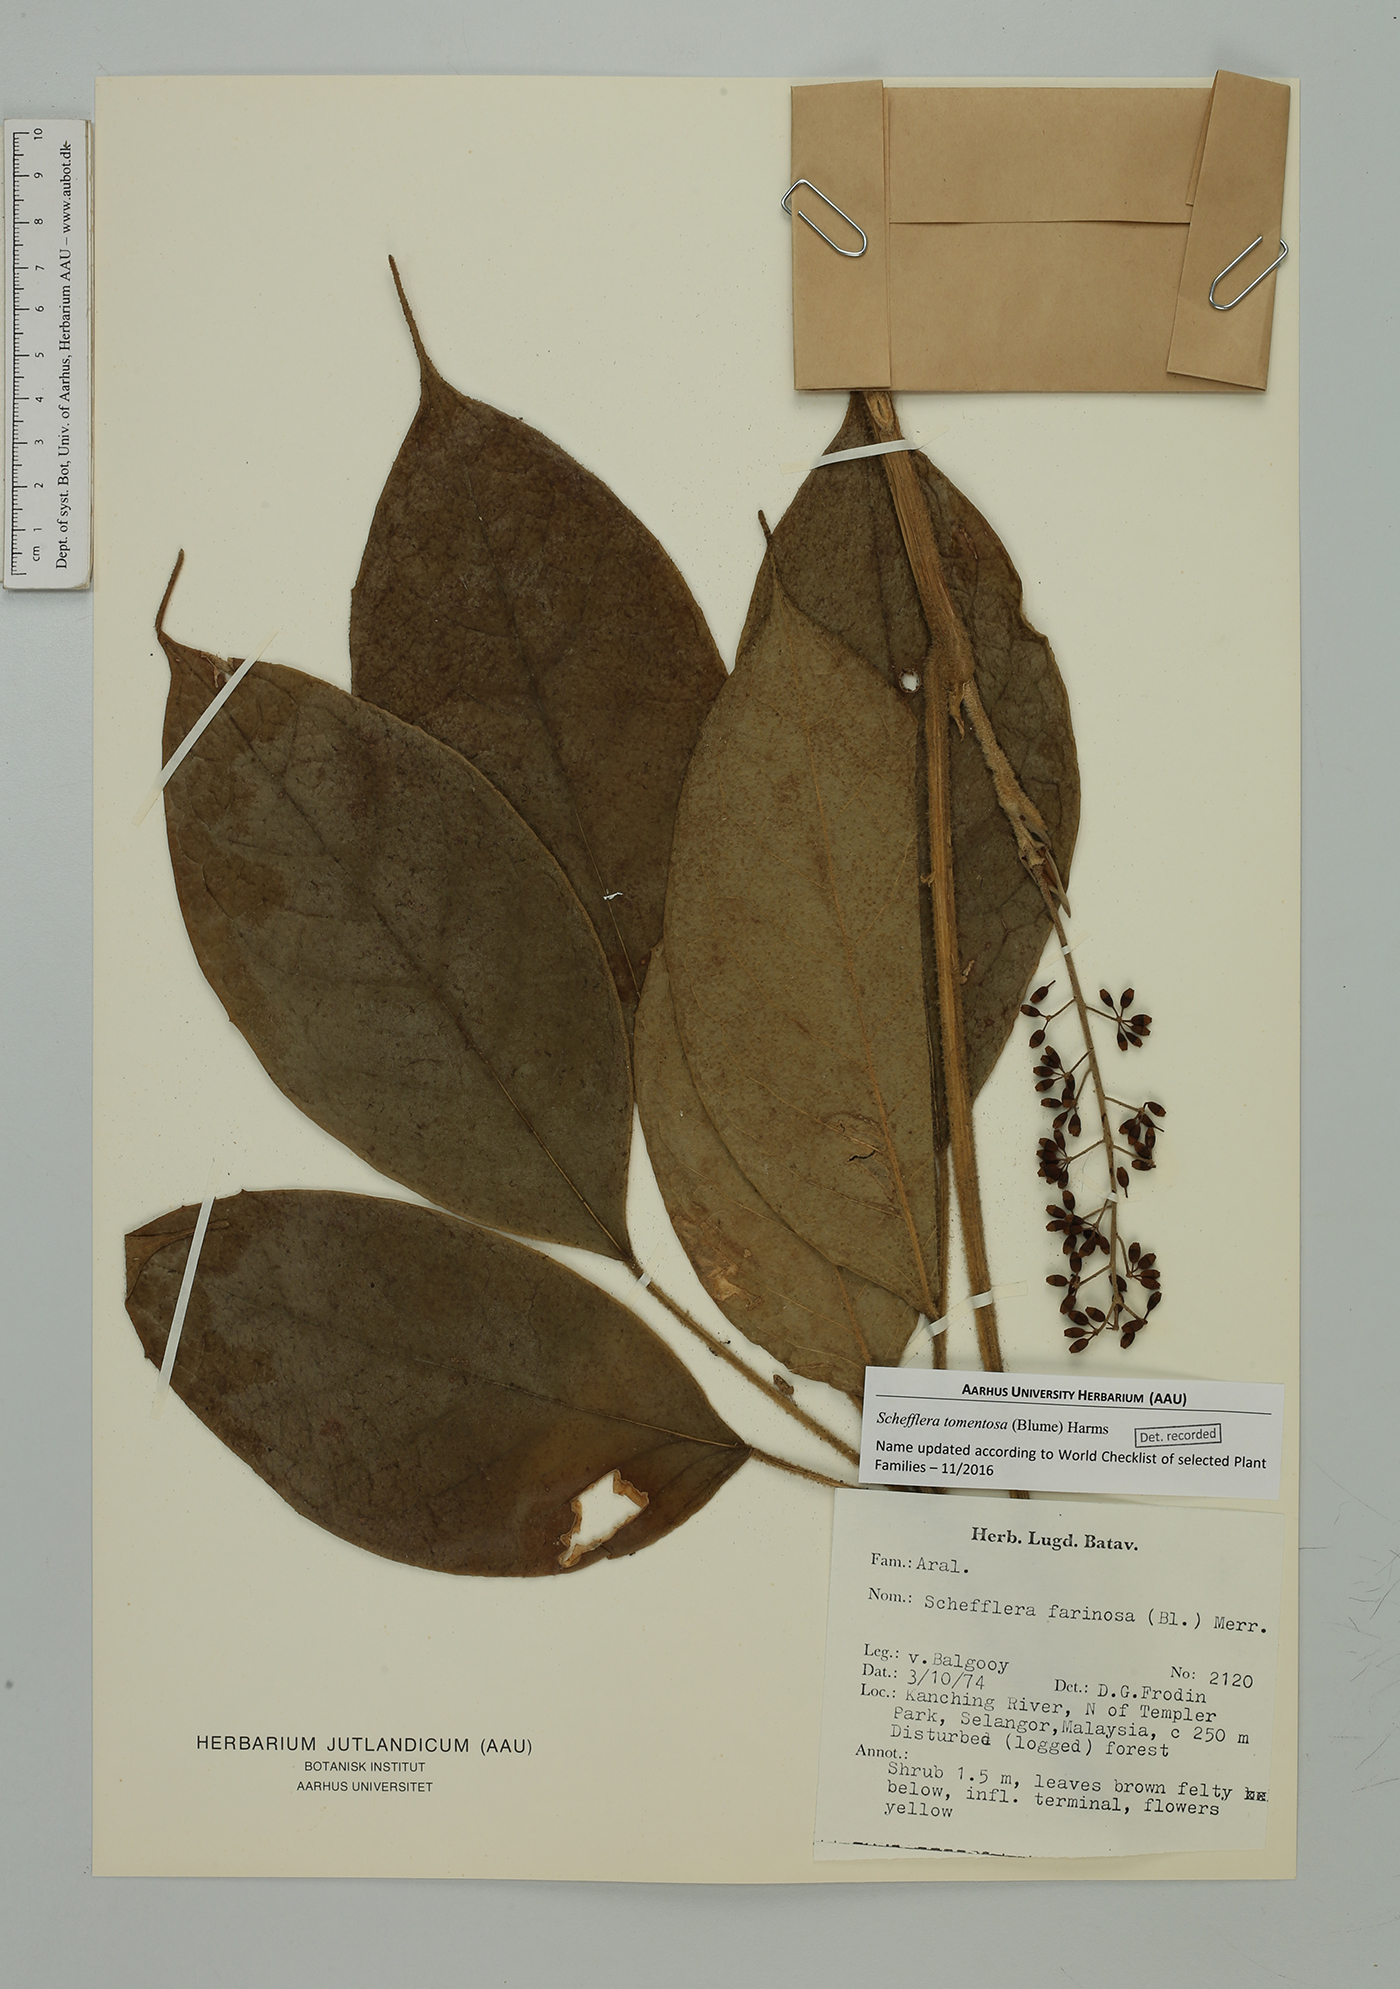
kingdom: Plantae
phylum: Tracheophyta
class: Magnoliopsida
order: Apiales
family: Araliaceae
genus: Heptapleurum
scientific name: Heptapleurum farinosum
